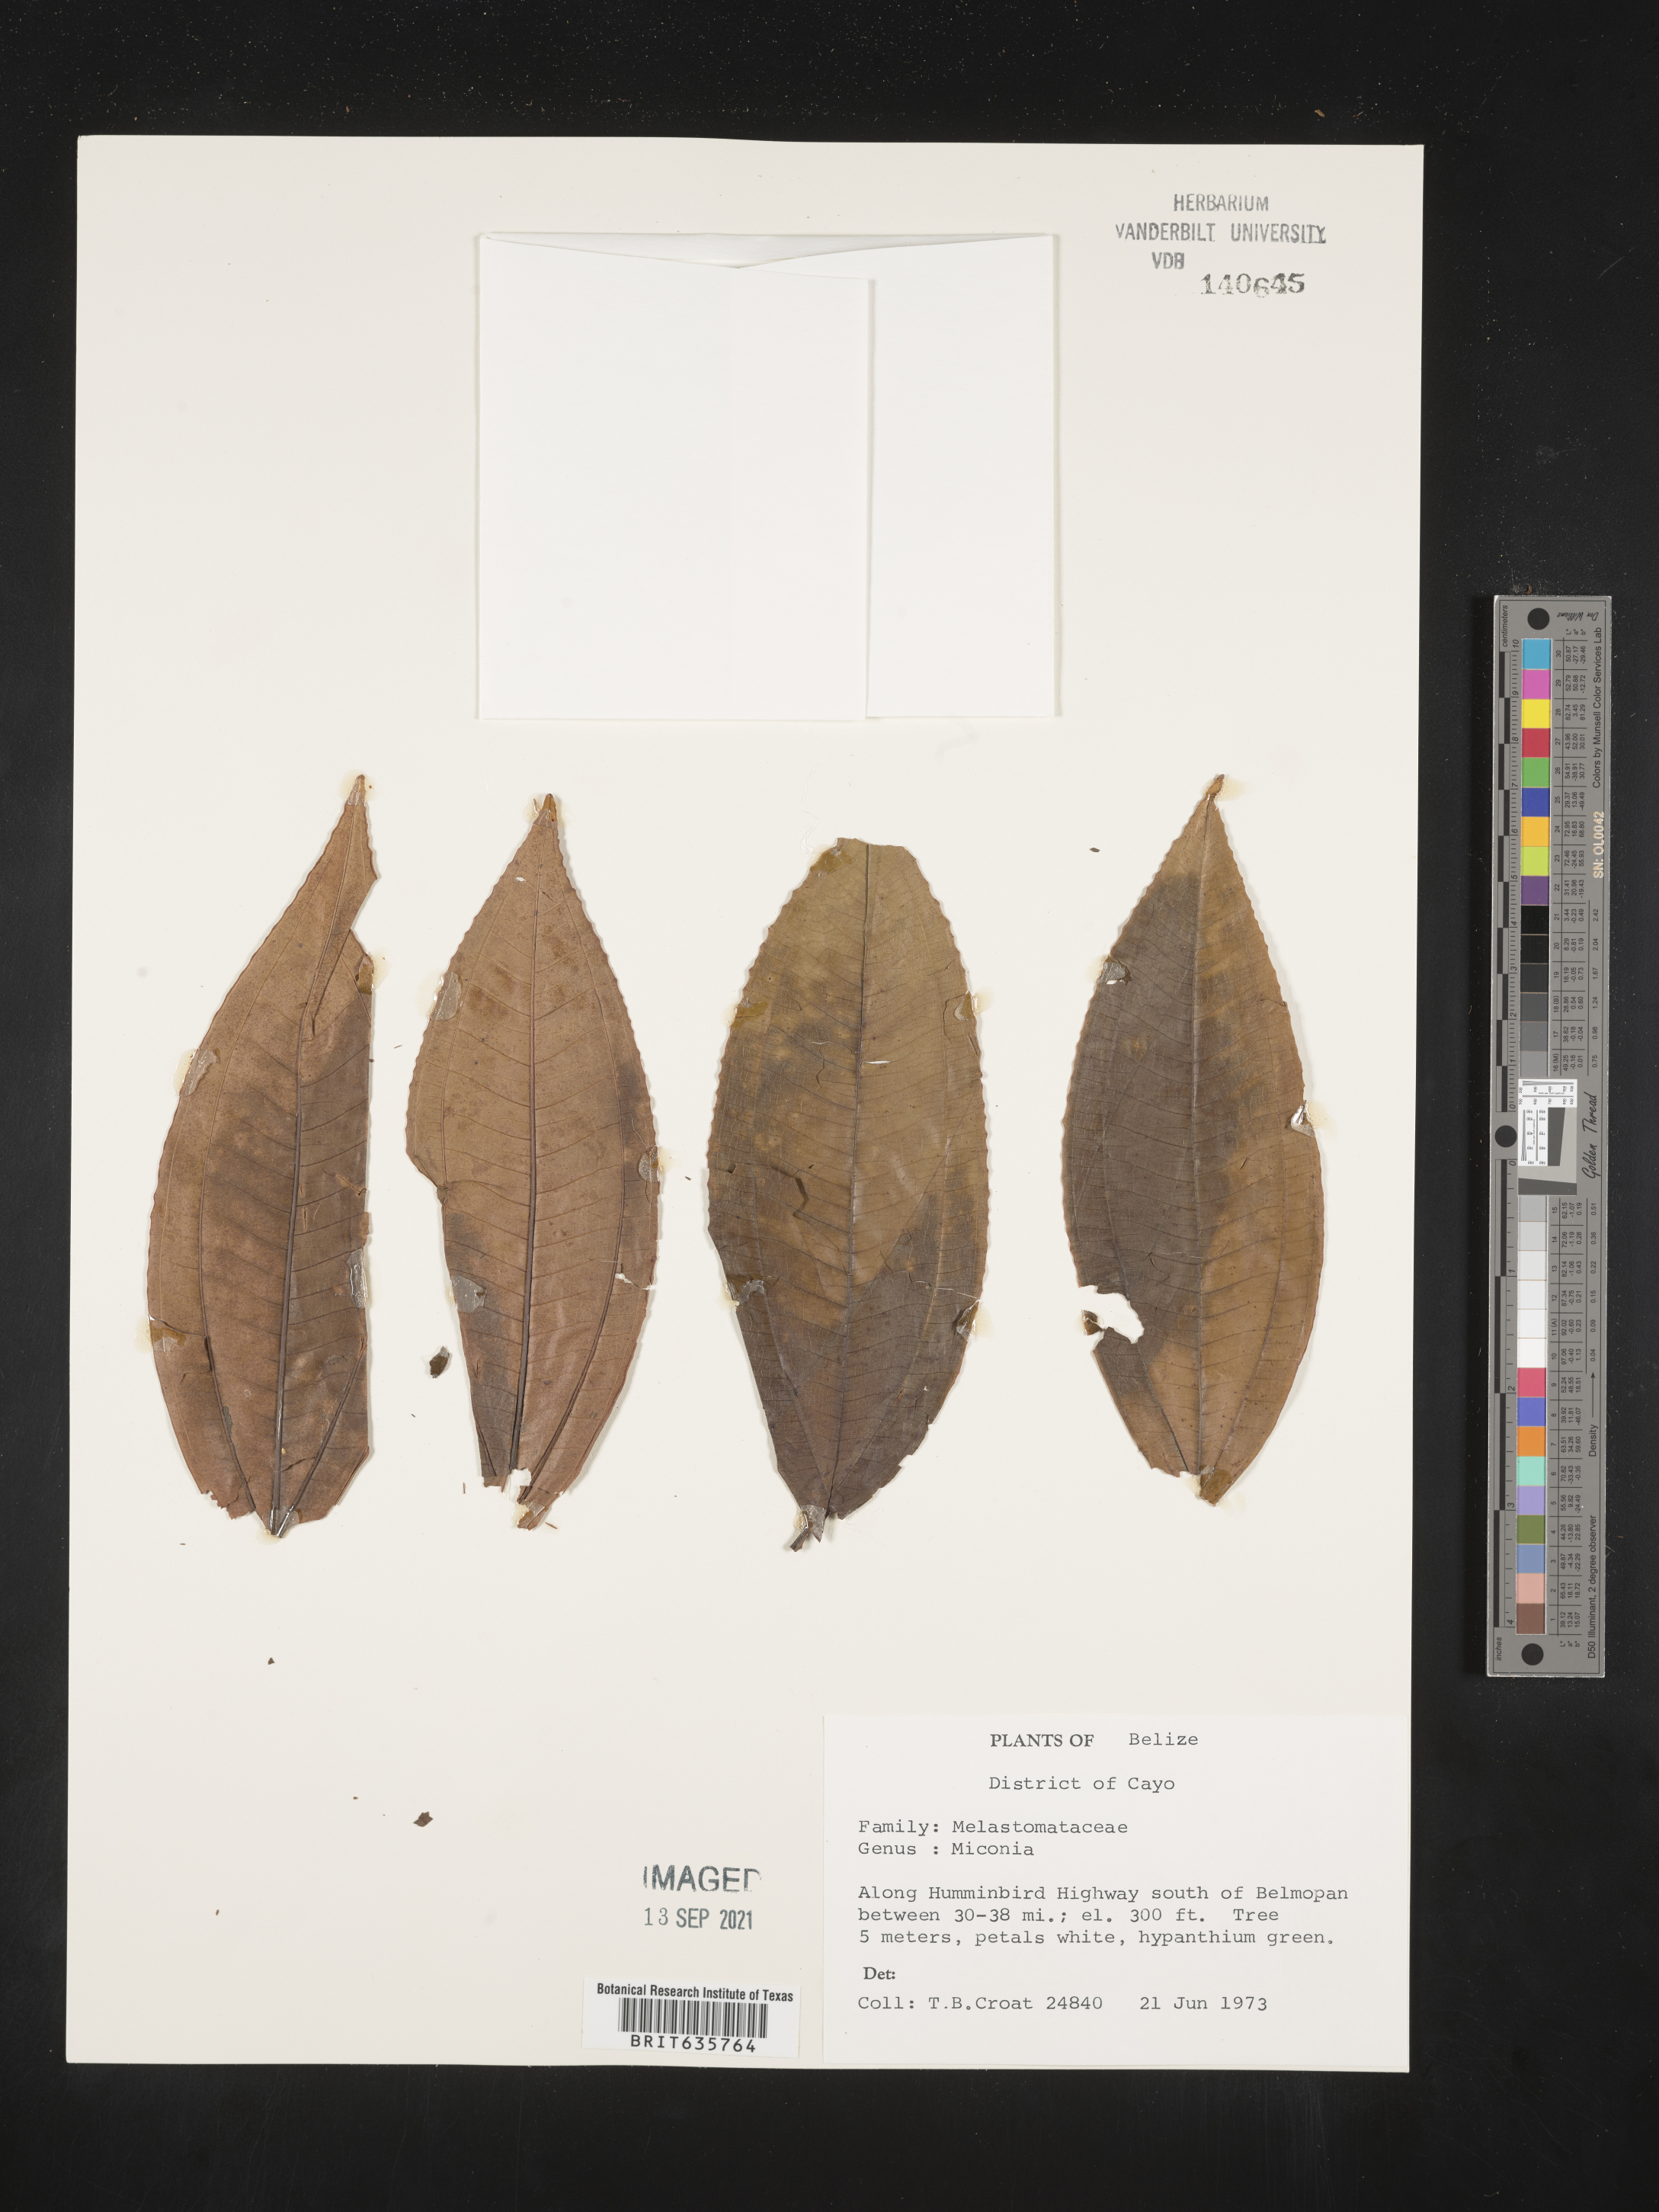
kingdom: Plantae
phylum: Tracheophyta
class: Magnoliopsida
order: Myrtales
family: Melastomataceae
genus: Miconia
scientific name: Miconia
